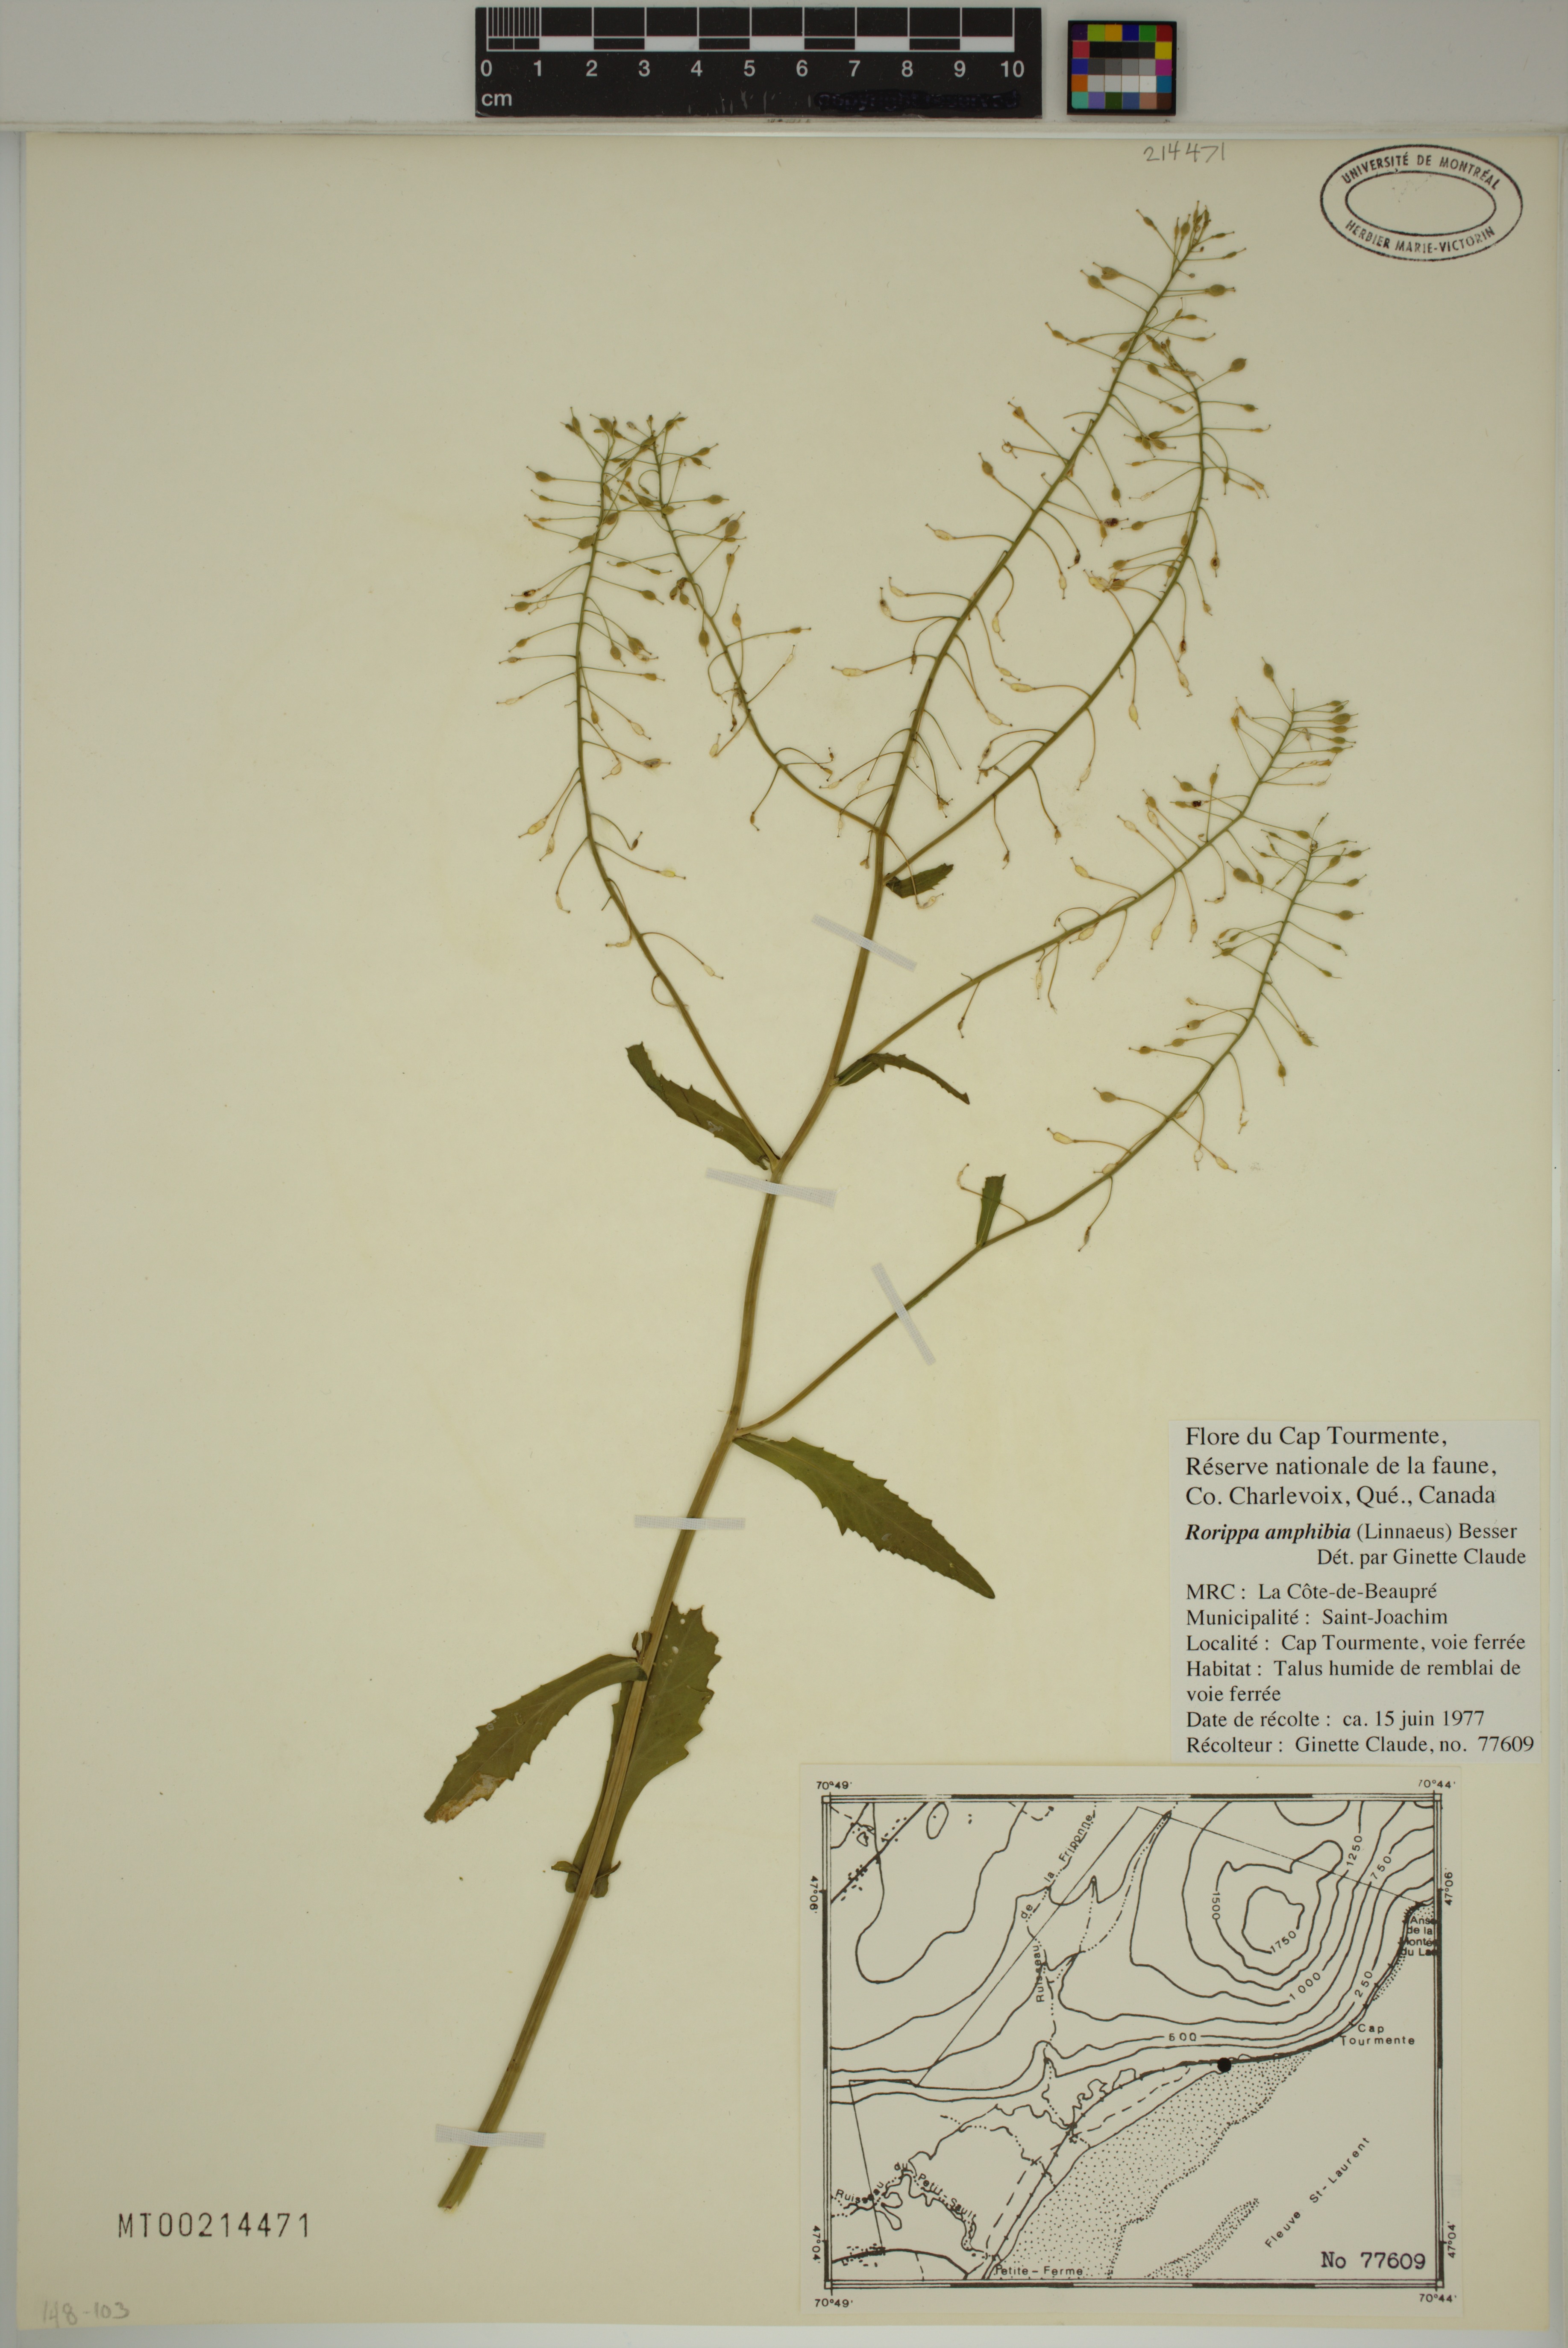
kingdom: Plantae
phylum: Tracheophyta
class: Magnoliopsida
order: Brassicales
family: Brassicaceae
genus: Rorippa
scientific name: Rorippa amphibia
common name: Great yellow-cress
